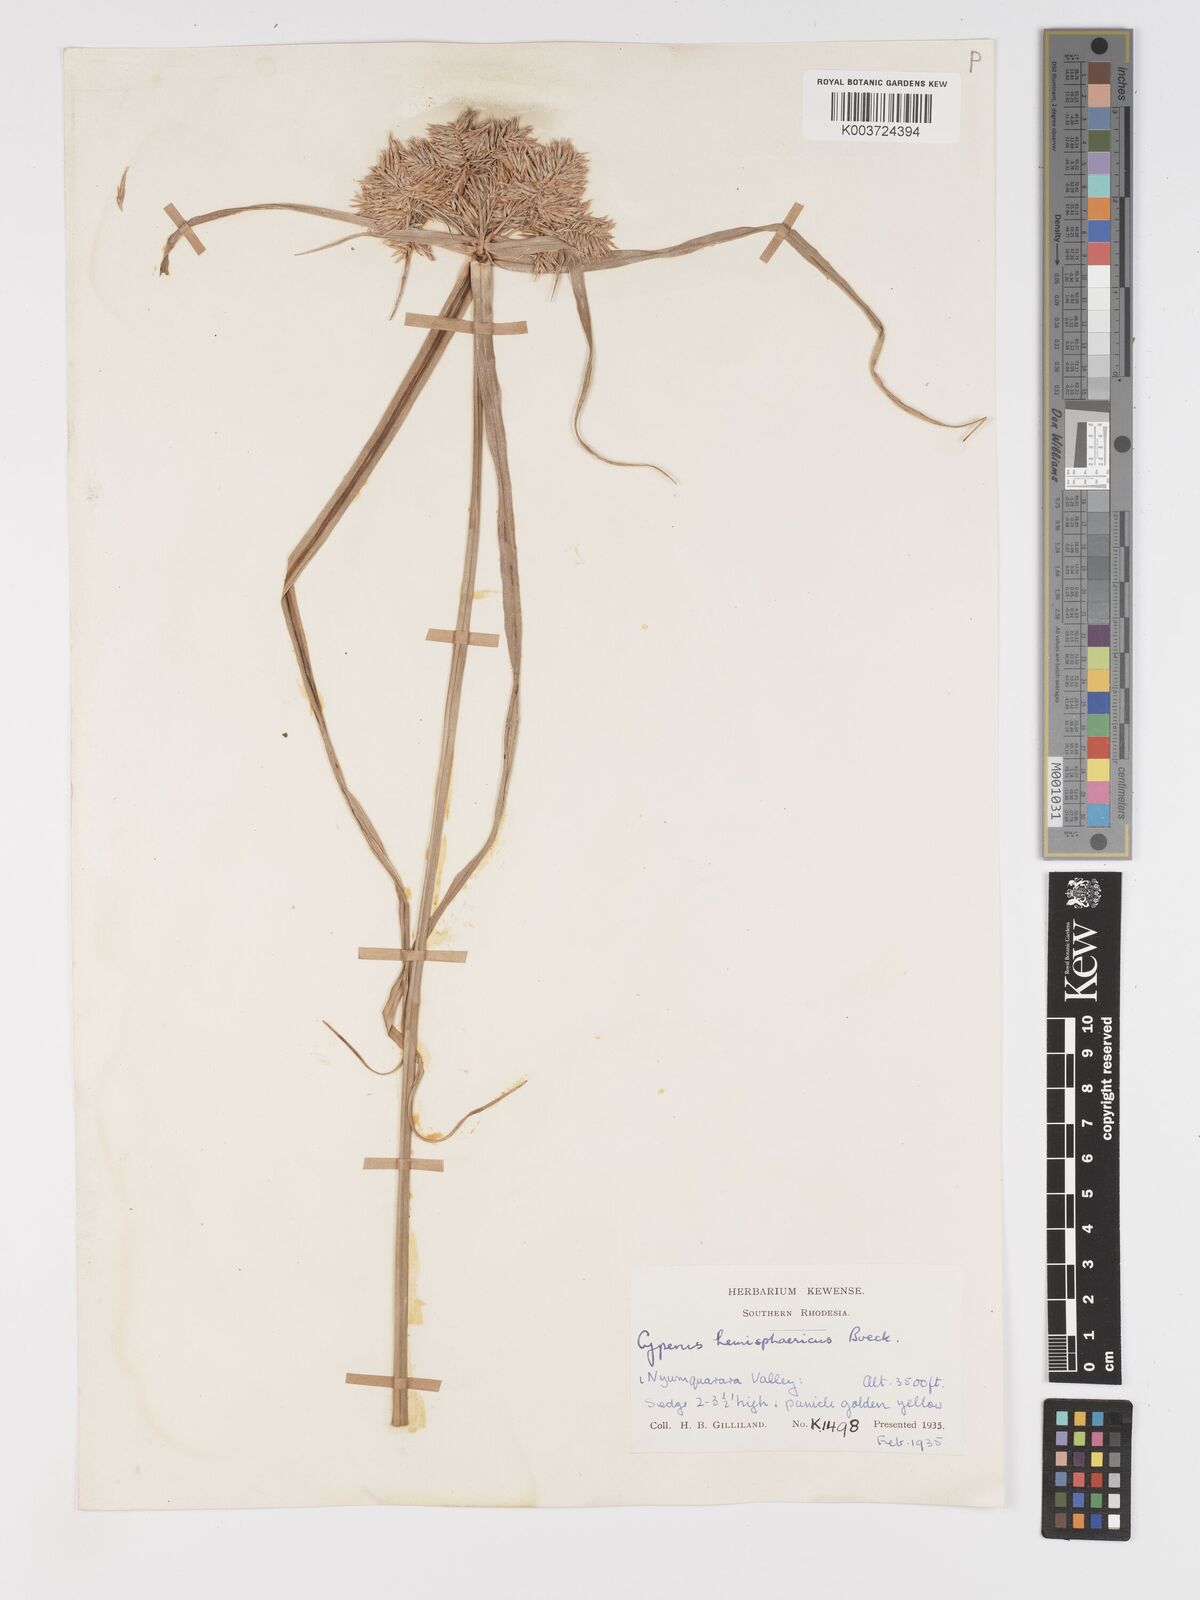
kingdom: Plantae
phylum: Tracheophyta
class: Liliopsida
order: Poales
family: Cyperaceae
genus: Cyperus
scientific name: Cyperus hemisphaericus
